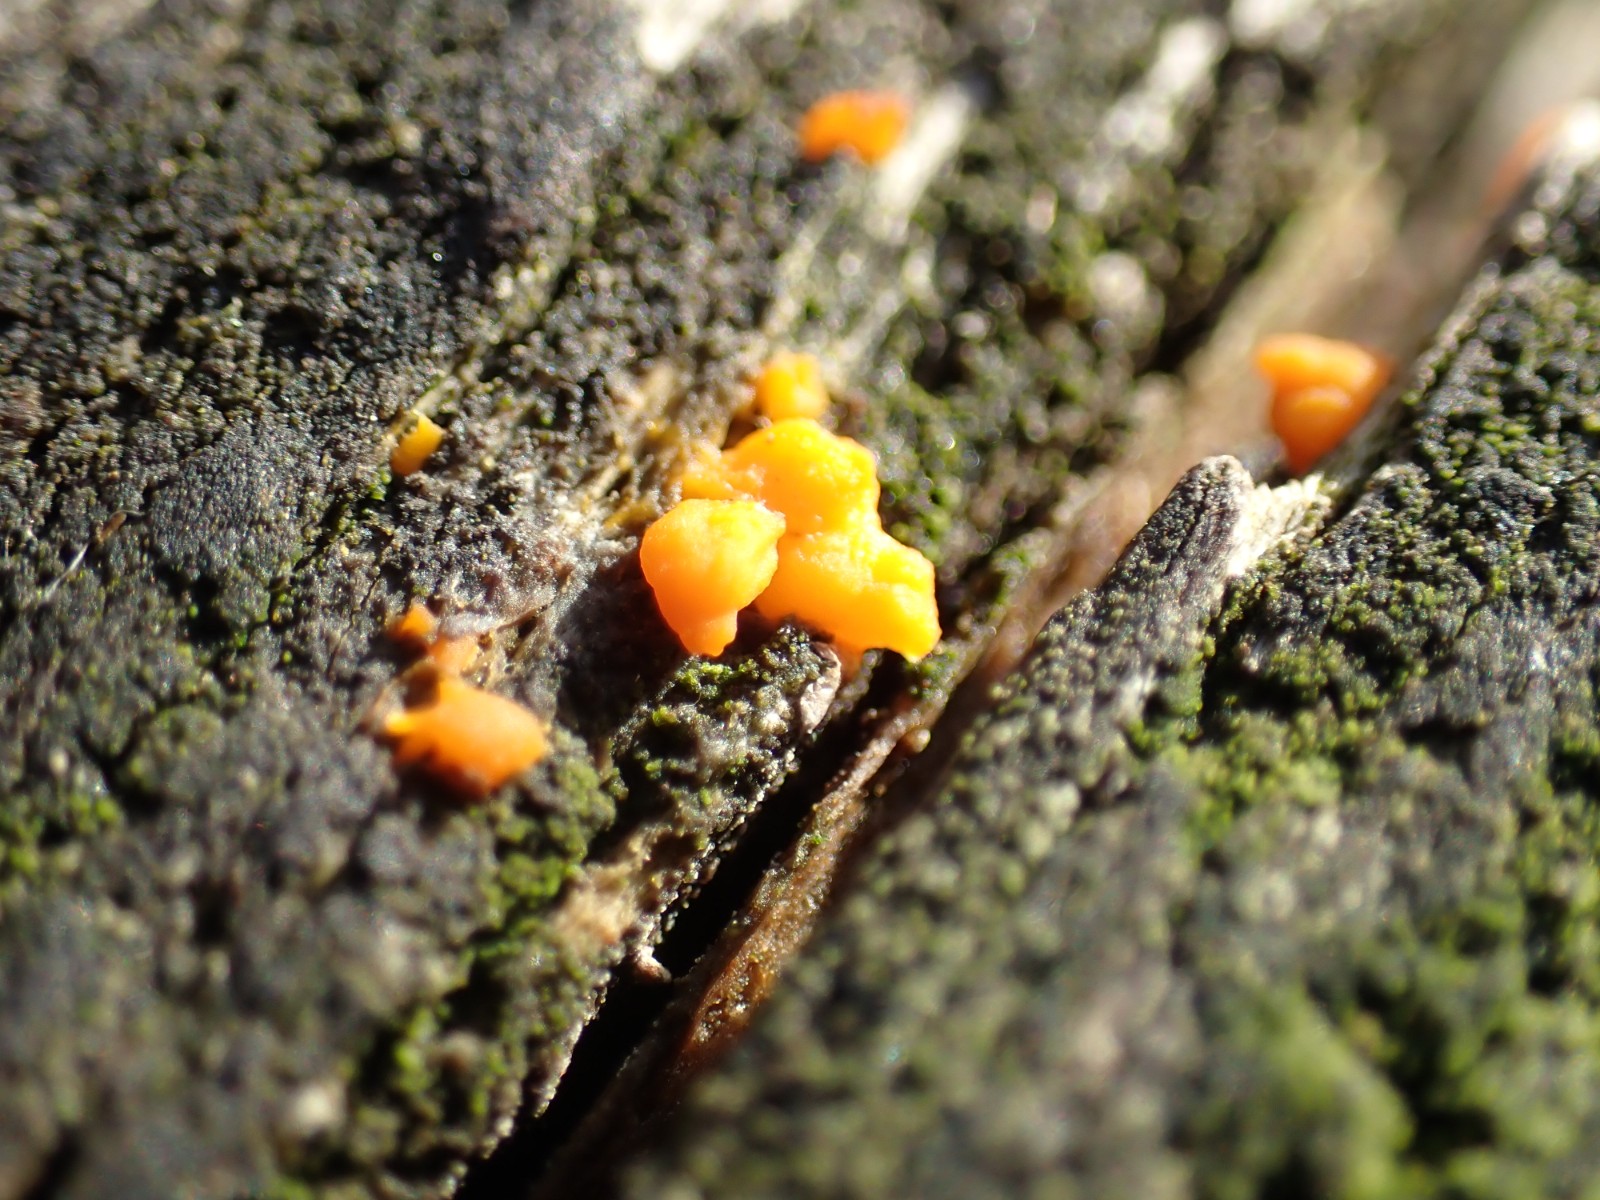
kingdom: Fungi
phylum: Basidiomycota
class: Dacrymycetes
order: Dacrymycetales
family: Dacrymycetaceae
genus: Dacrymyces
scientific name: Dacrymyces stillatus
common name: almindelig tåresvamp
